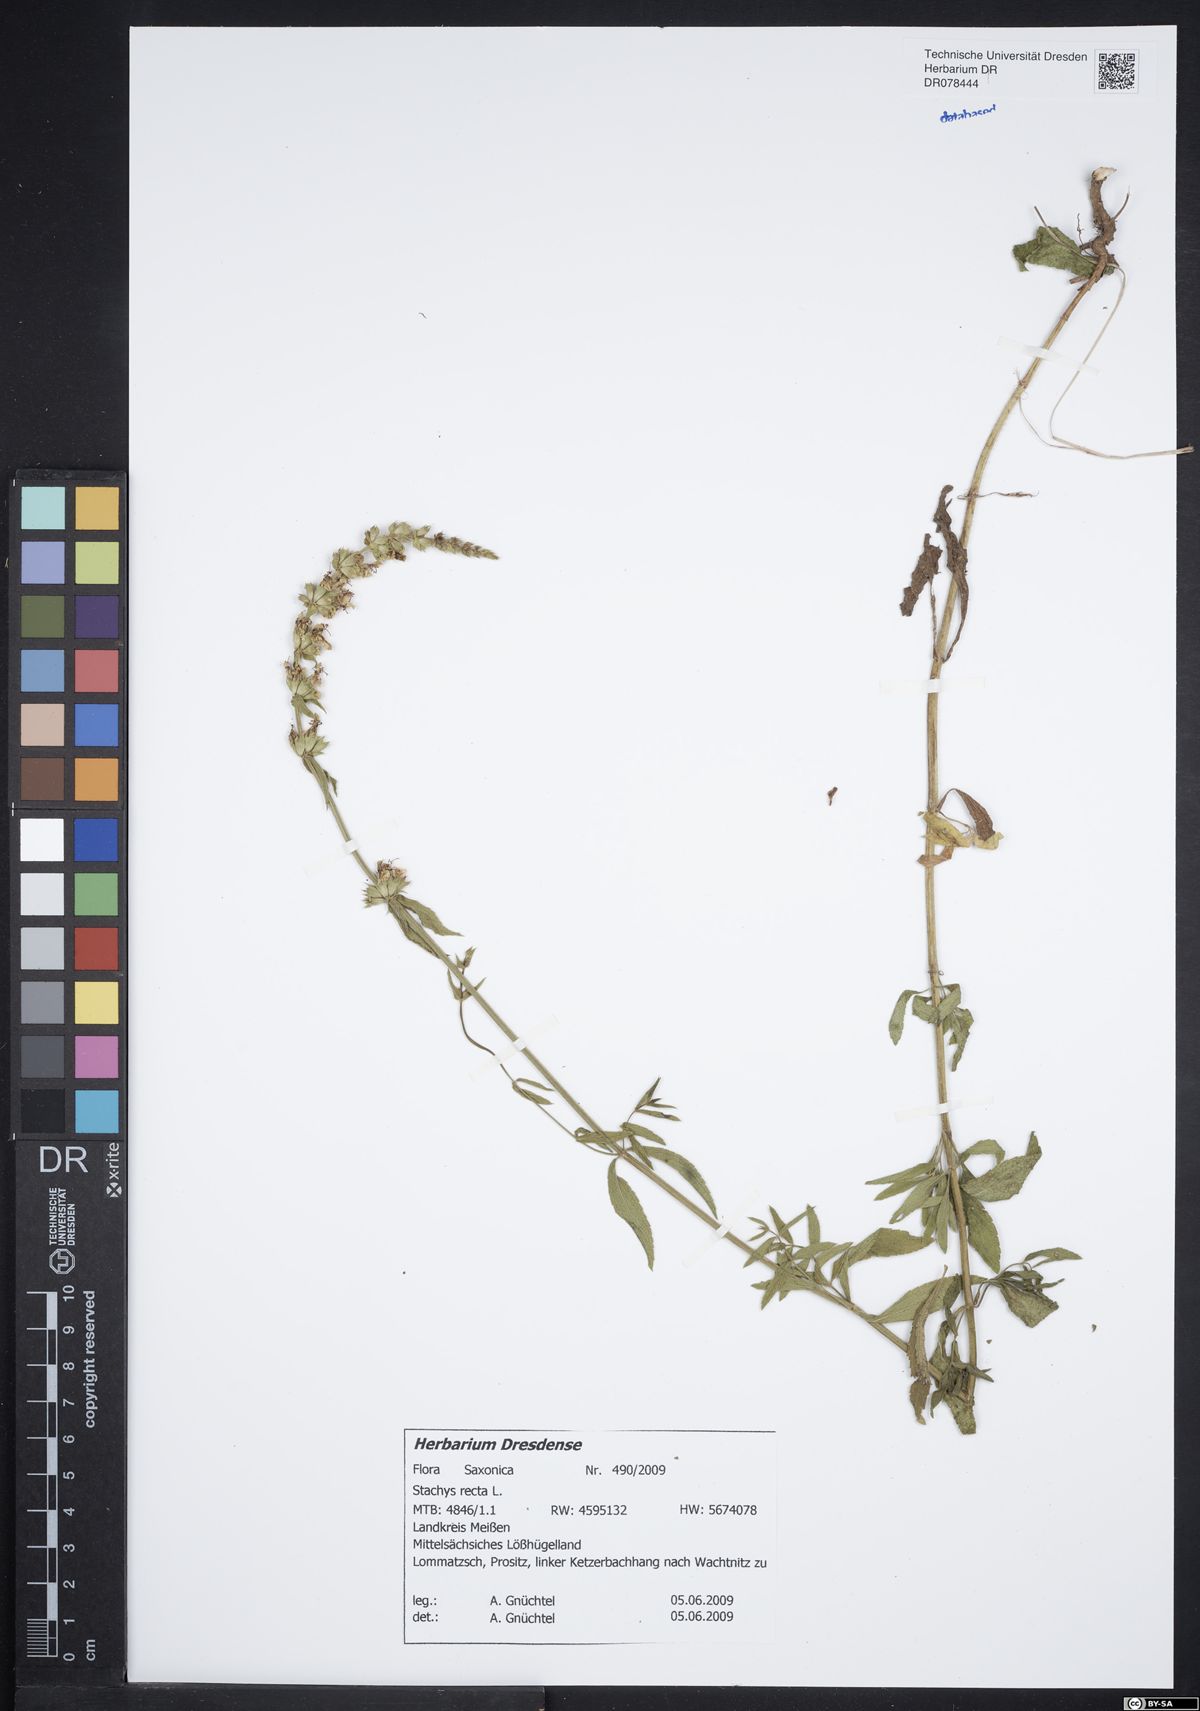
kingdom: Plantae
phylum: Tracheophyta
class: Magnoliopsida
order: Lamiales
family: Lamiaceae
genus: Stachys
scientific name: Stachys recta
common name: Perennial yellow-woundwort
